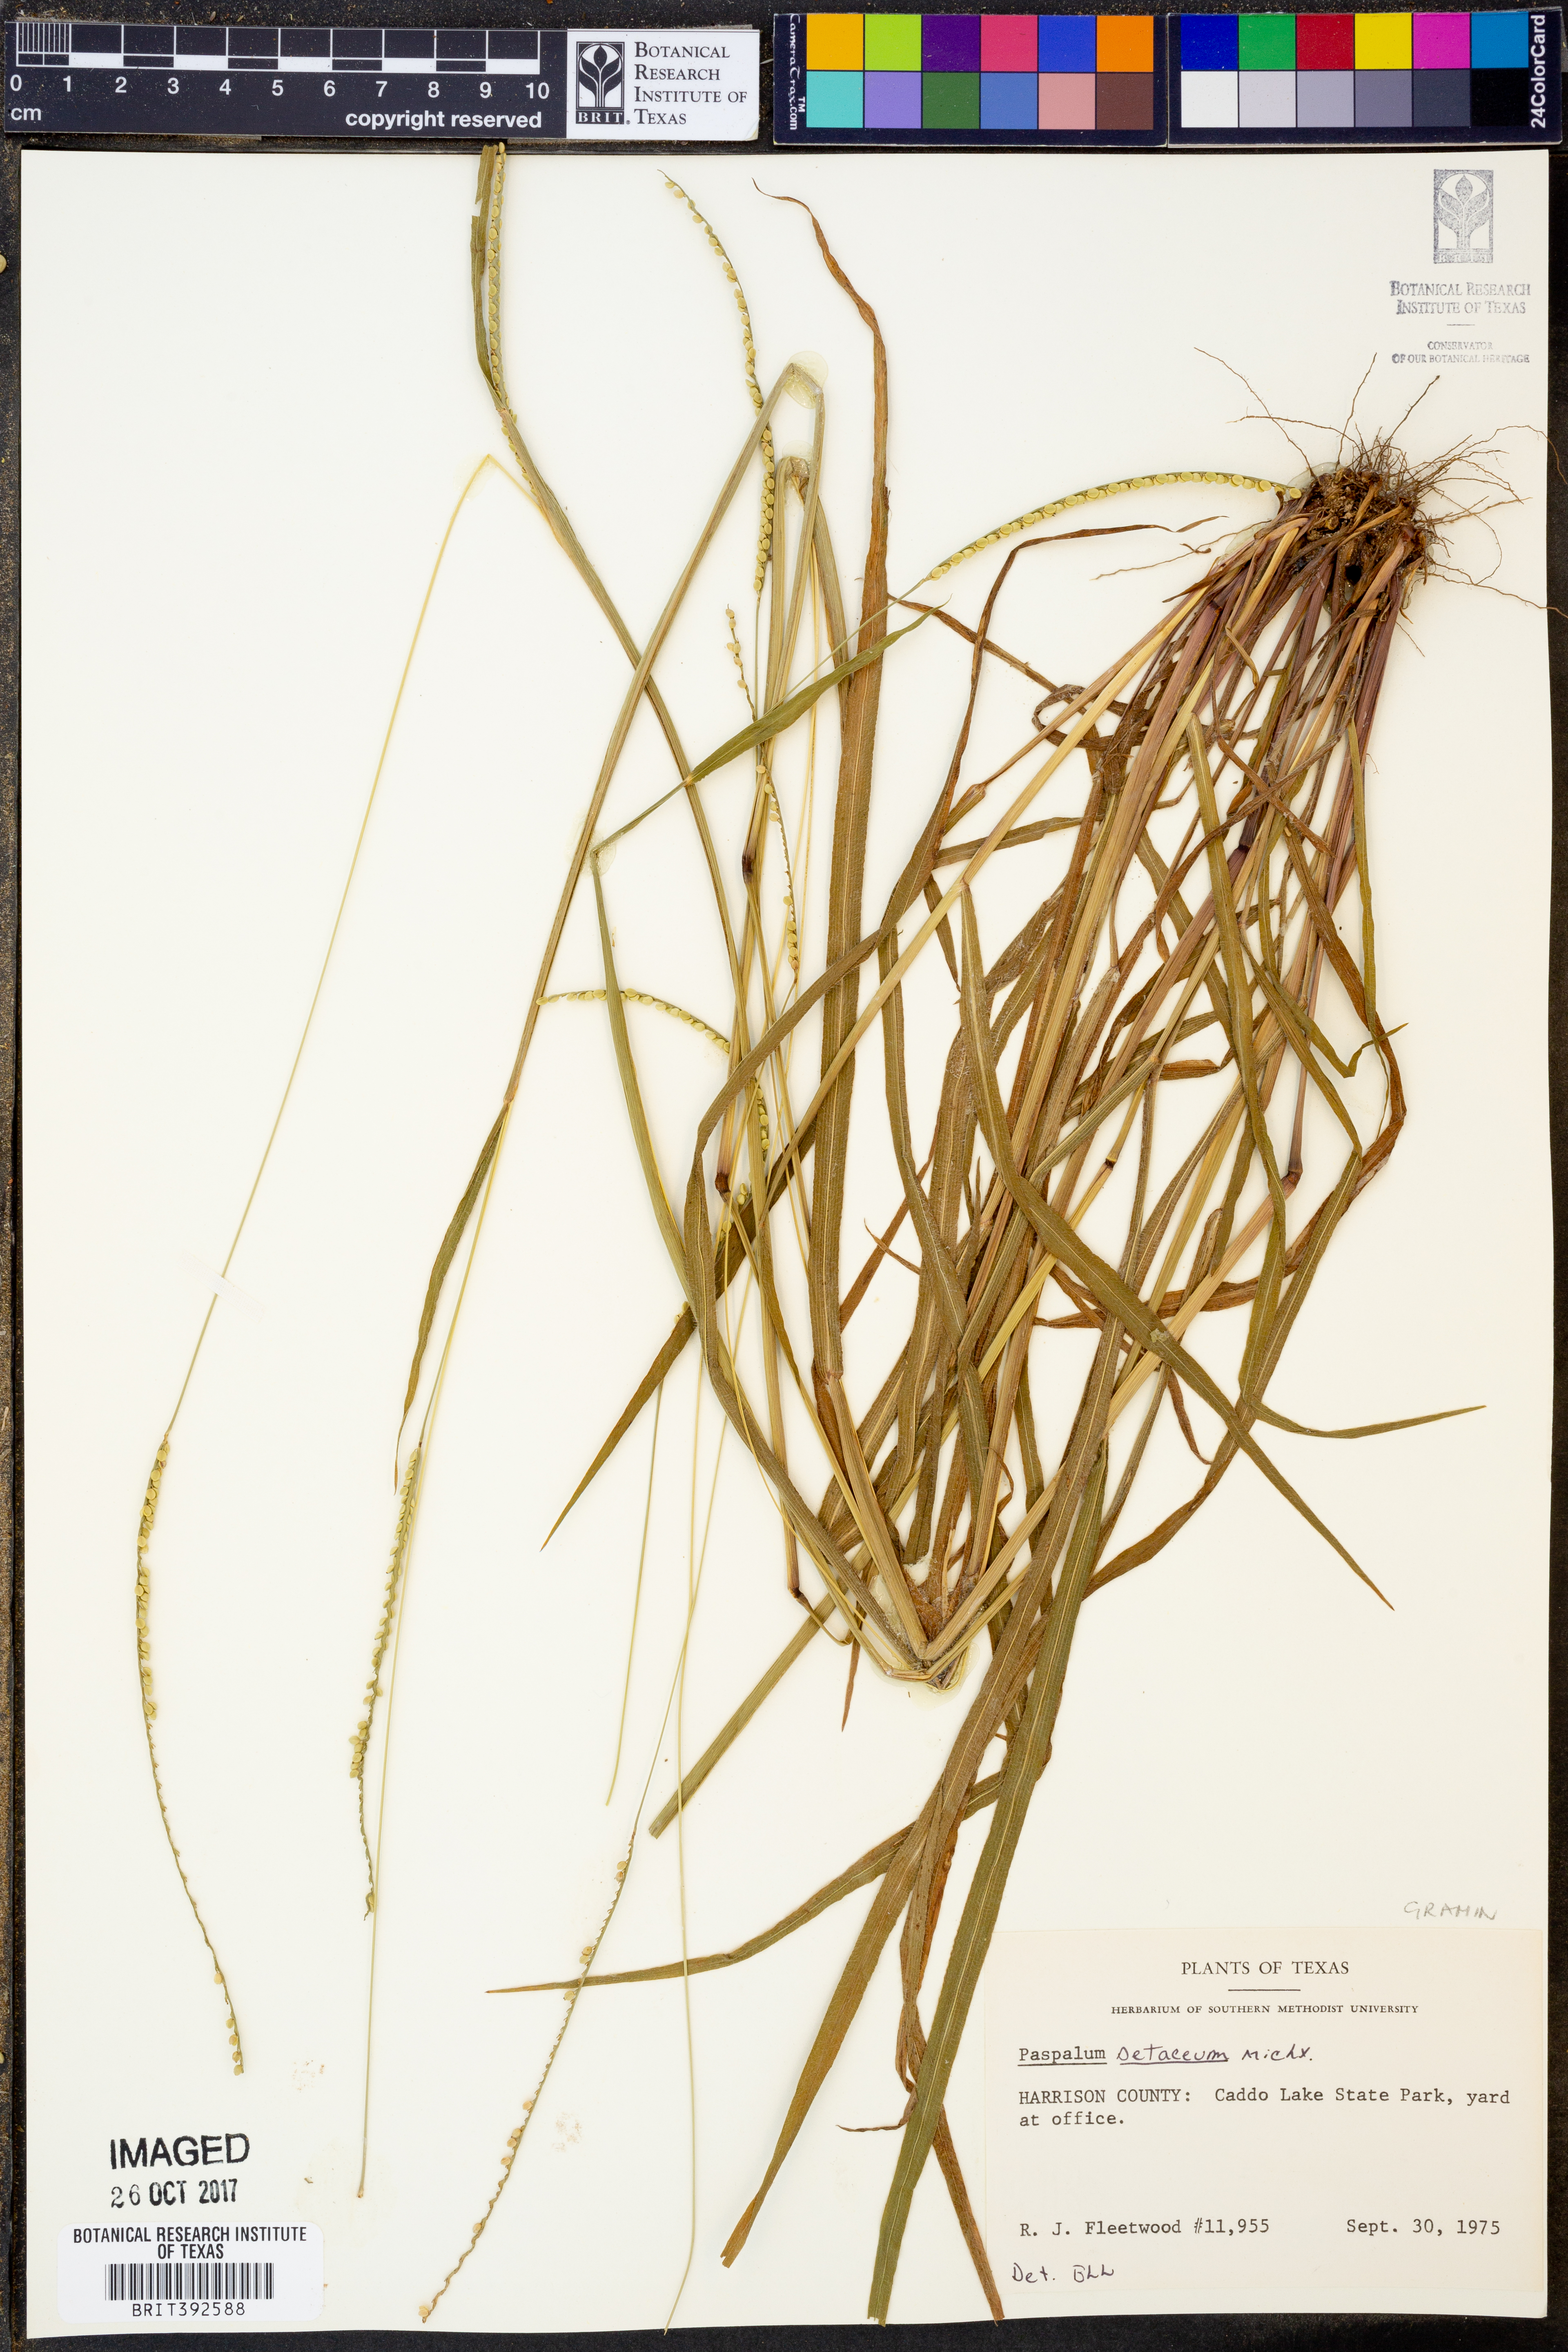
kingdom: Plantae
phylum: Tracheophyta
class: Liliopsida
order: Poales
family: Poaceae
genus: Paspalum
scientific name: Paspalum setaceum
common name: Slender paspalum
